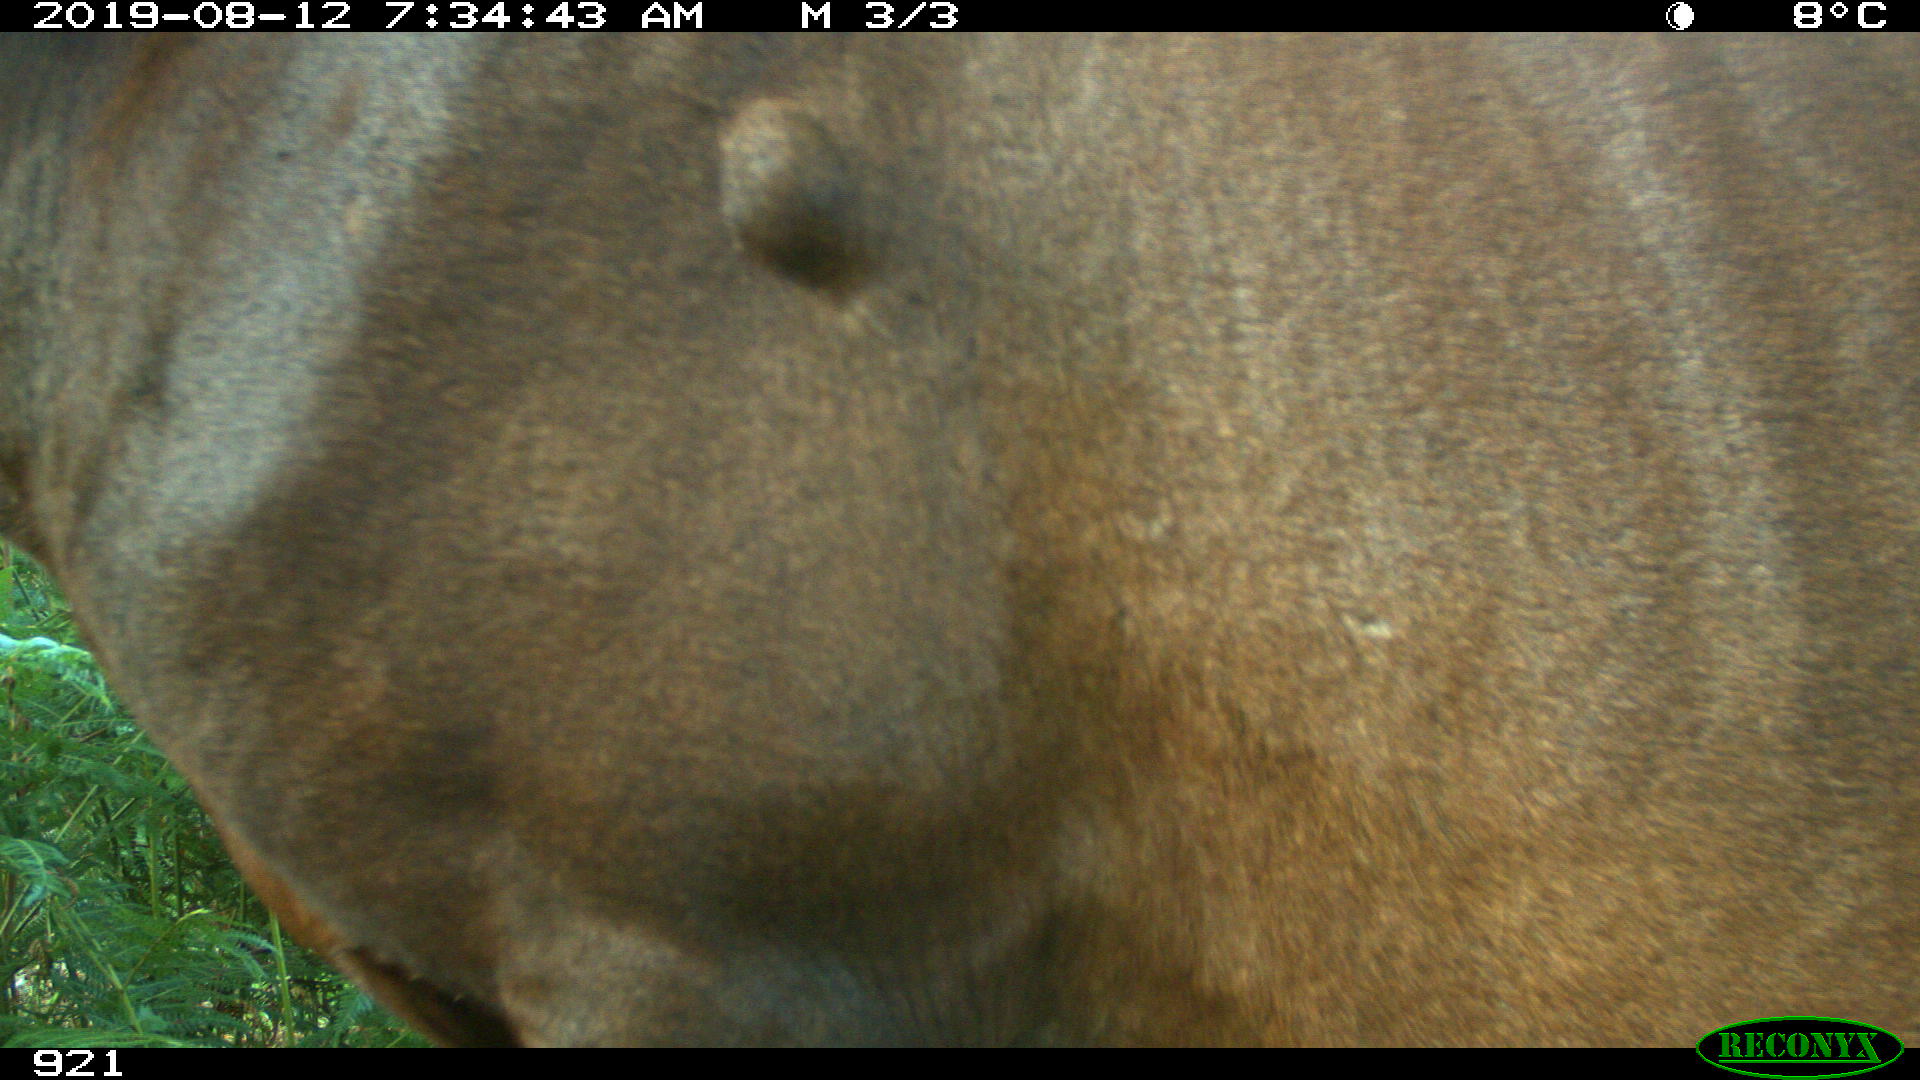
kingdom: Animalia
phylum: Chordata
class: Mammalia
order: Perissodactyla
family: Equidae
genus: Equus
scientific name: Equus caballus
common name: Horse
